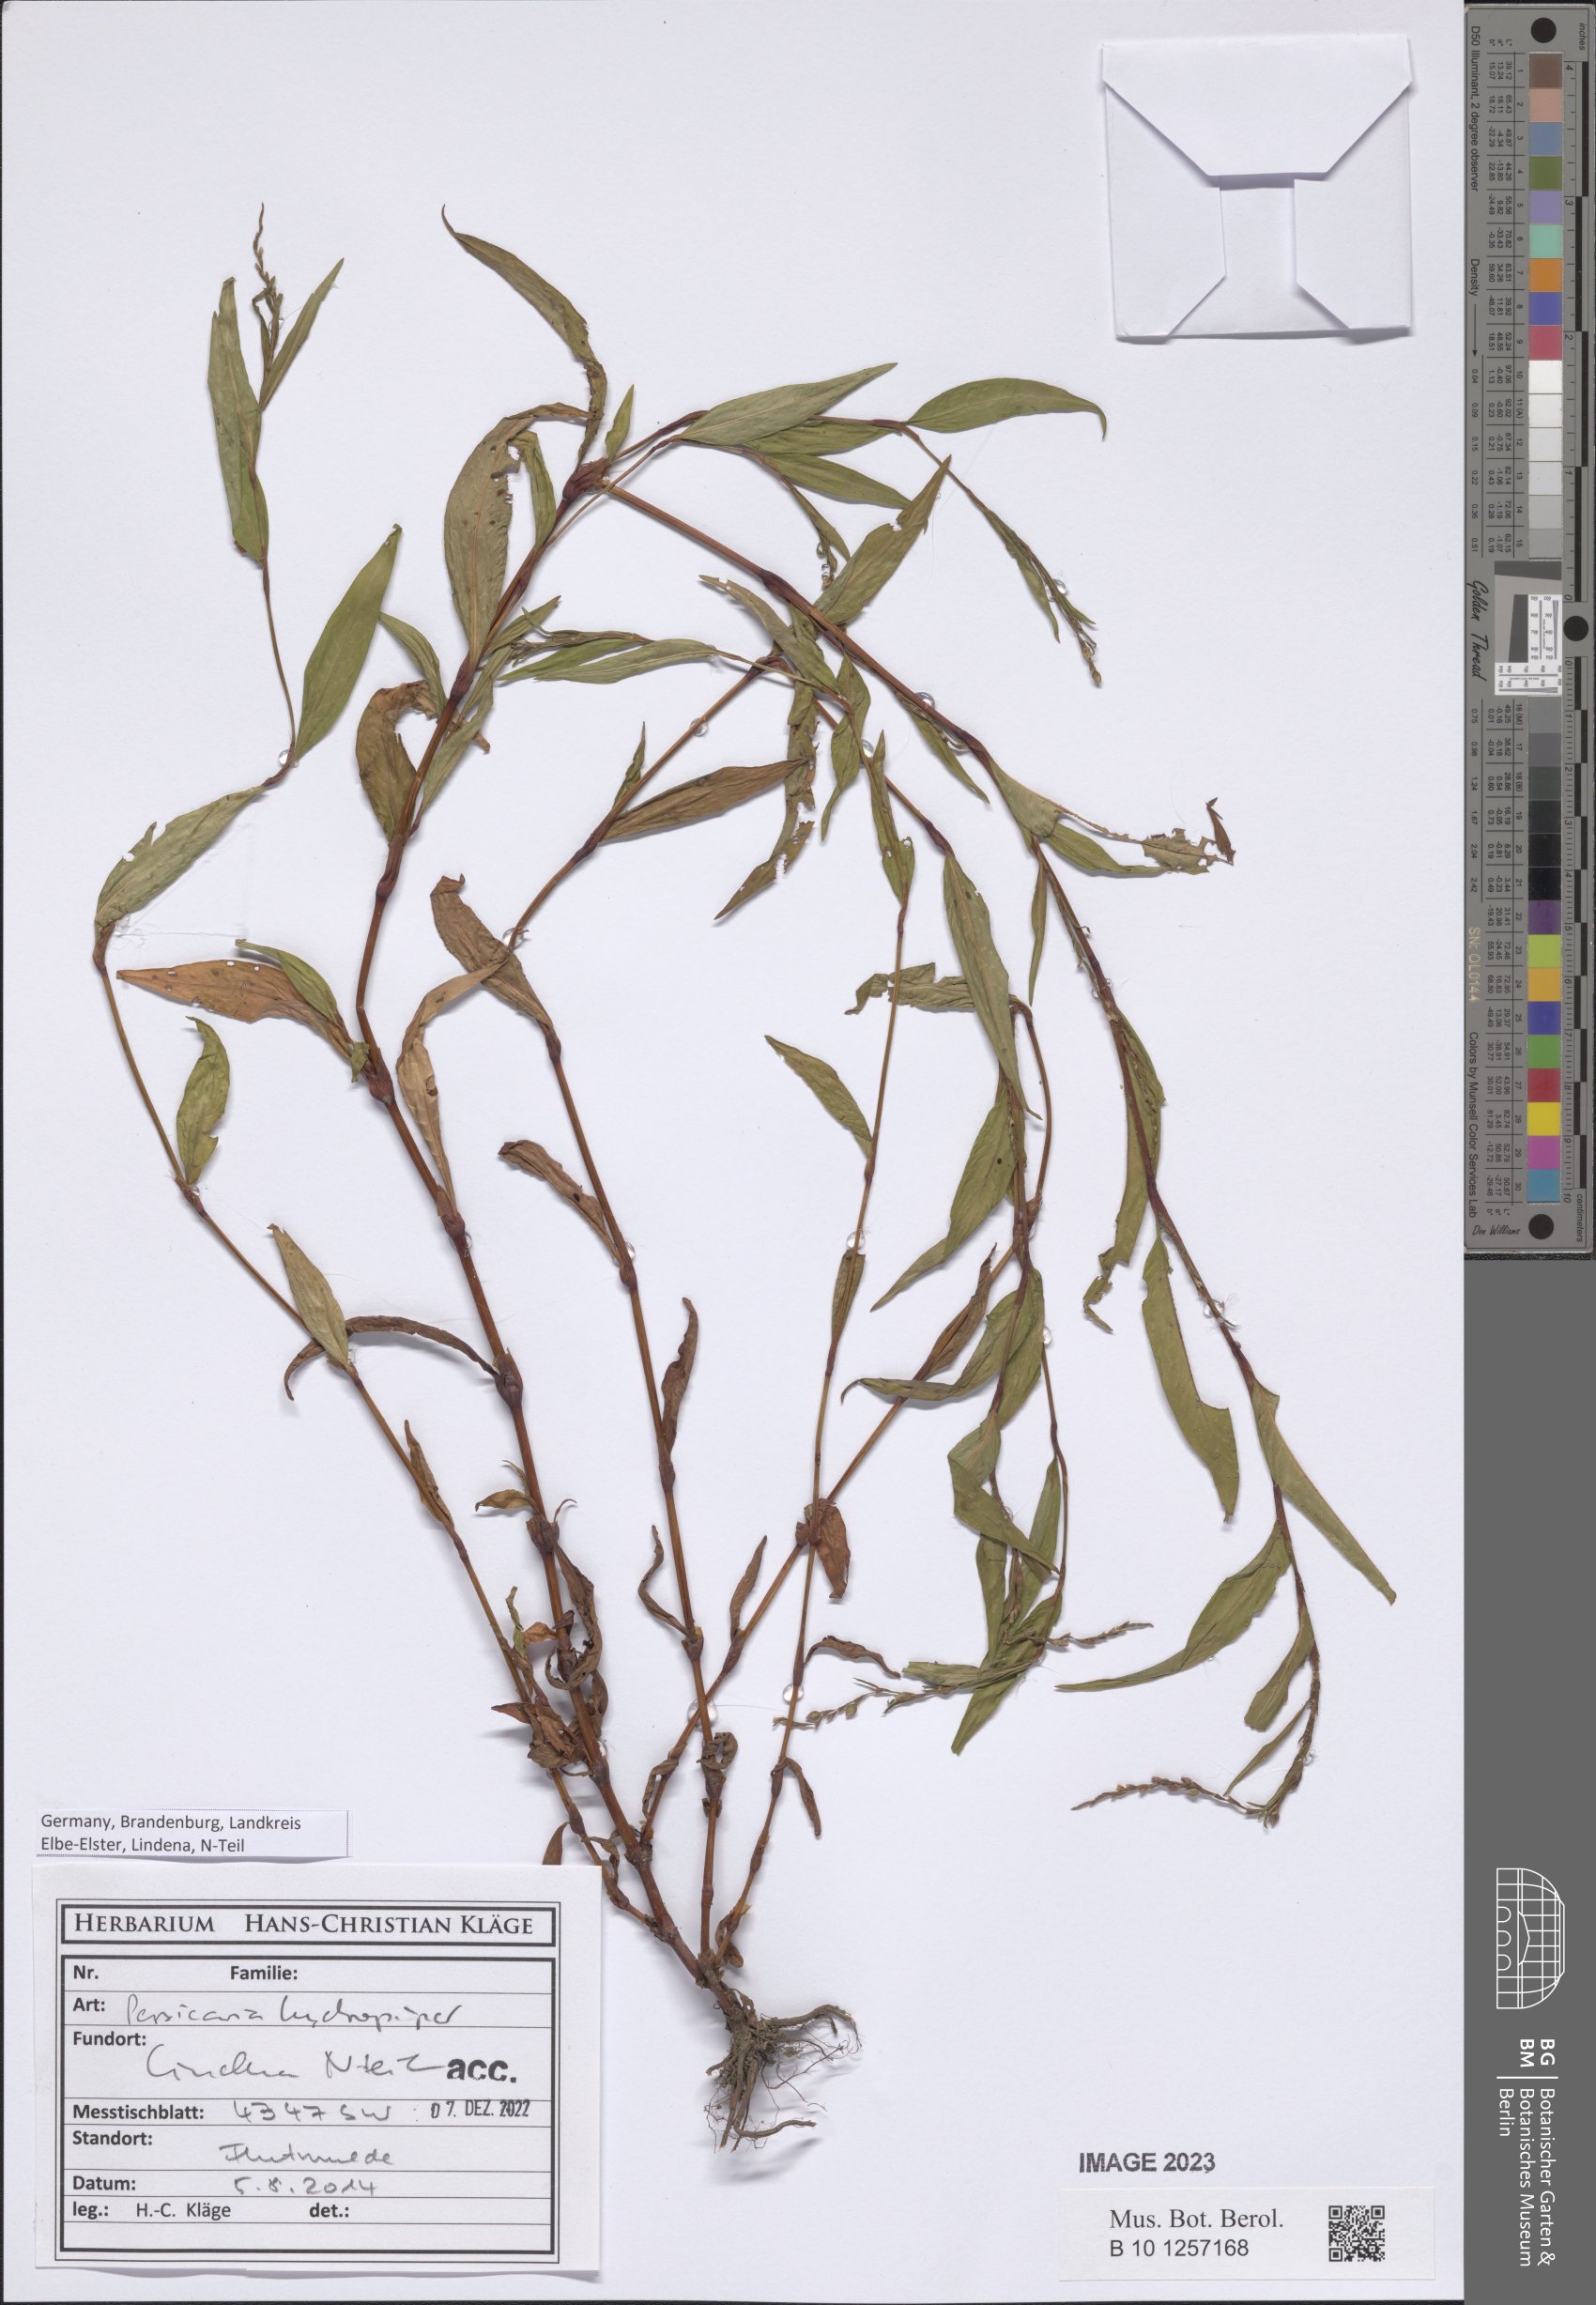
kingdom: Plantae
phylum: Tracheophyta
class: Magnoliopsida
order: Caryophyllales
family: Polygonaceae
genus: Persicaria
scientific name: Persicaria hydropiper
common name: Water-pepper
